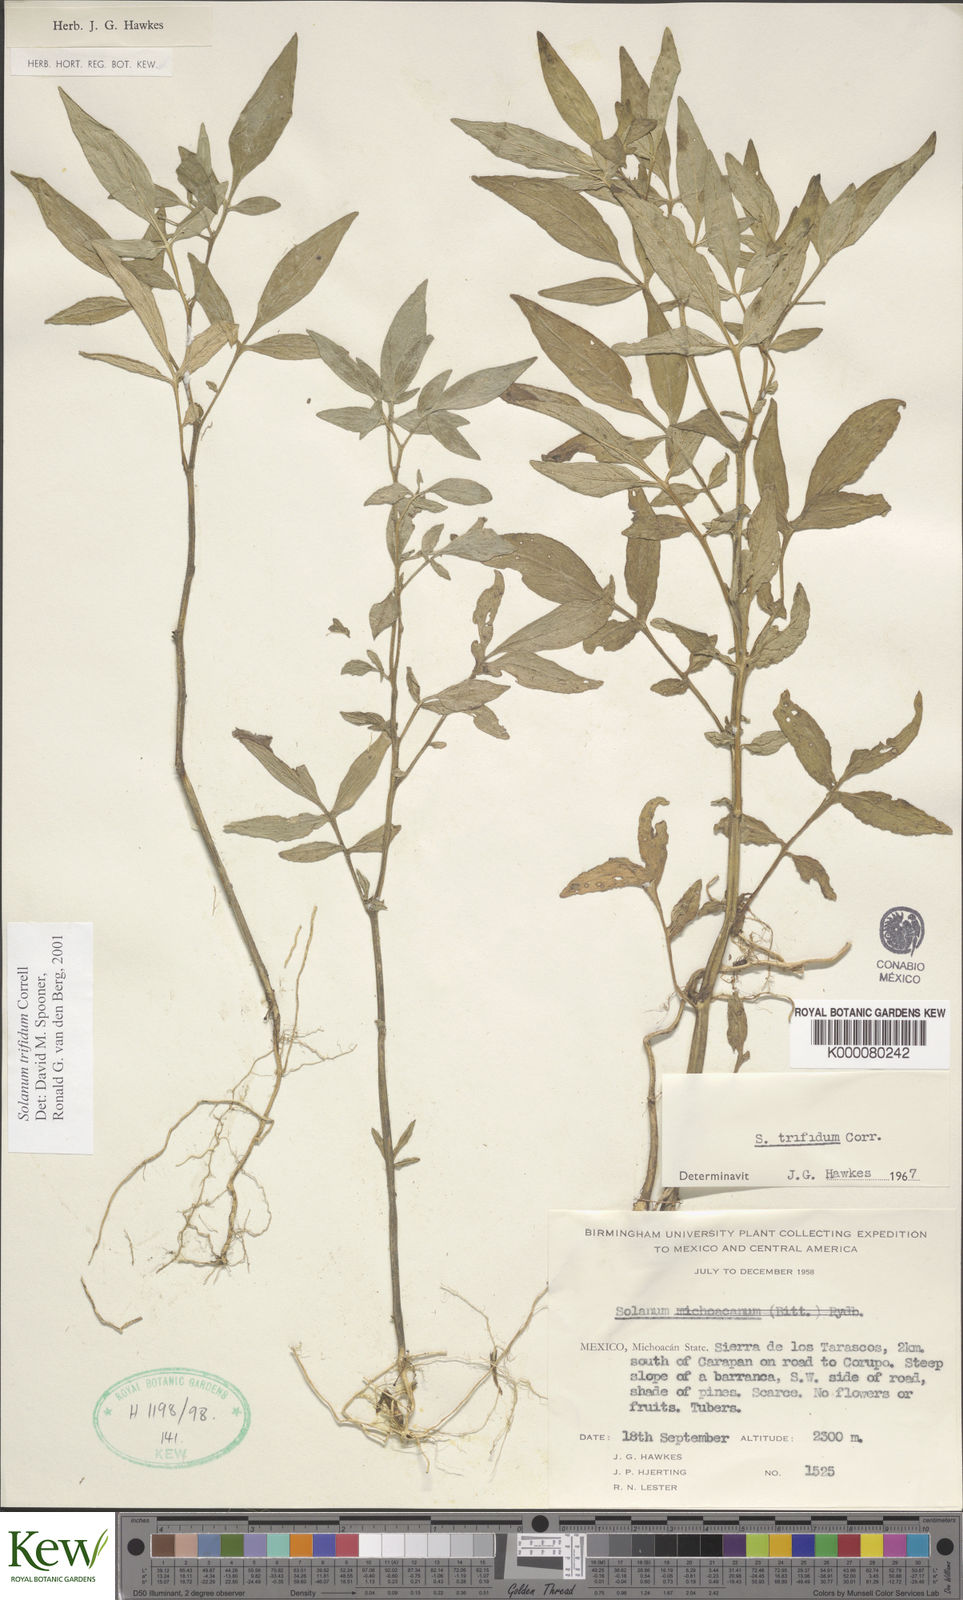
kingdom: Plantae
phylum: Tracheophyta
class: Magnoliopsida
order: Solanales
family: Solanaceae
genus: Solanum
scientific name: Solanum trifidum
